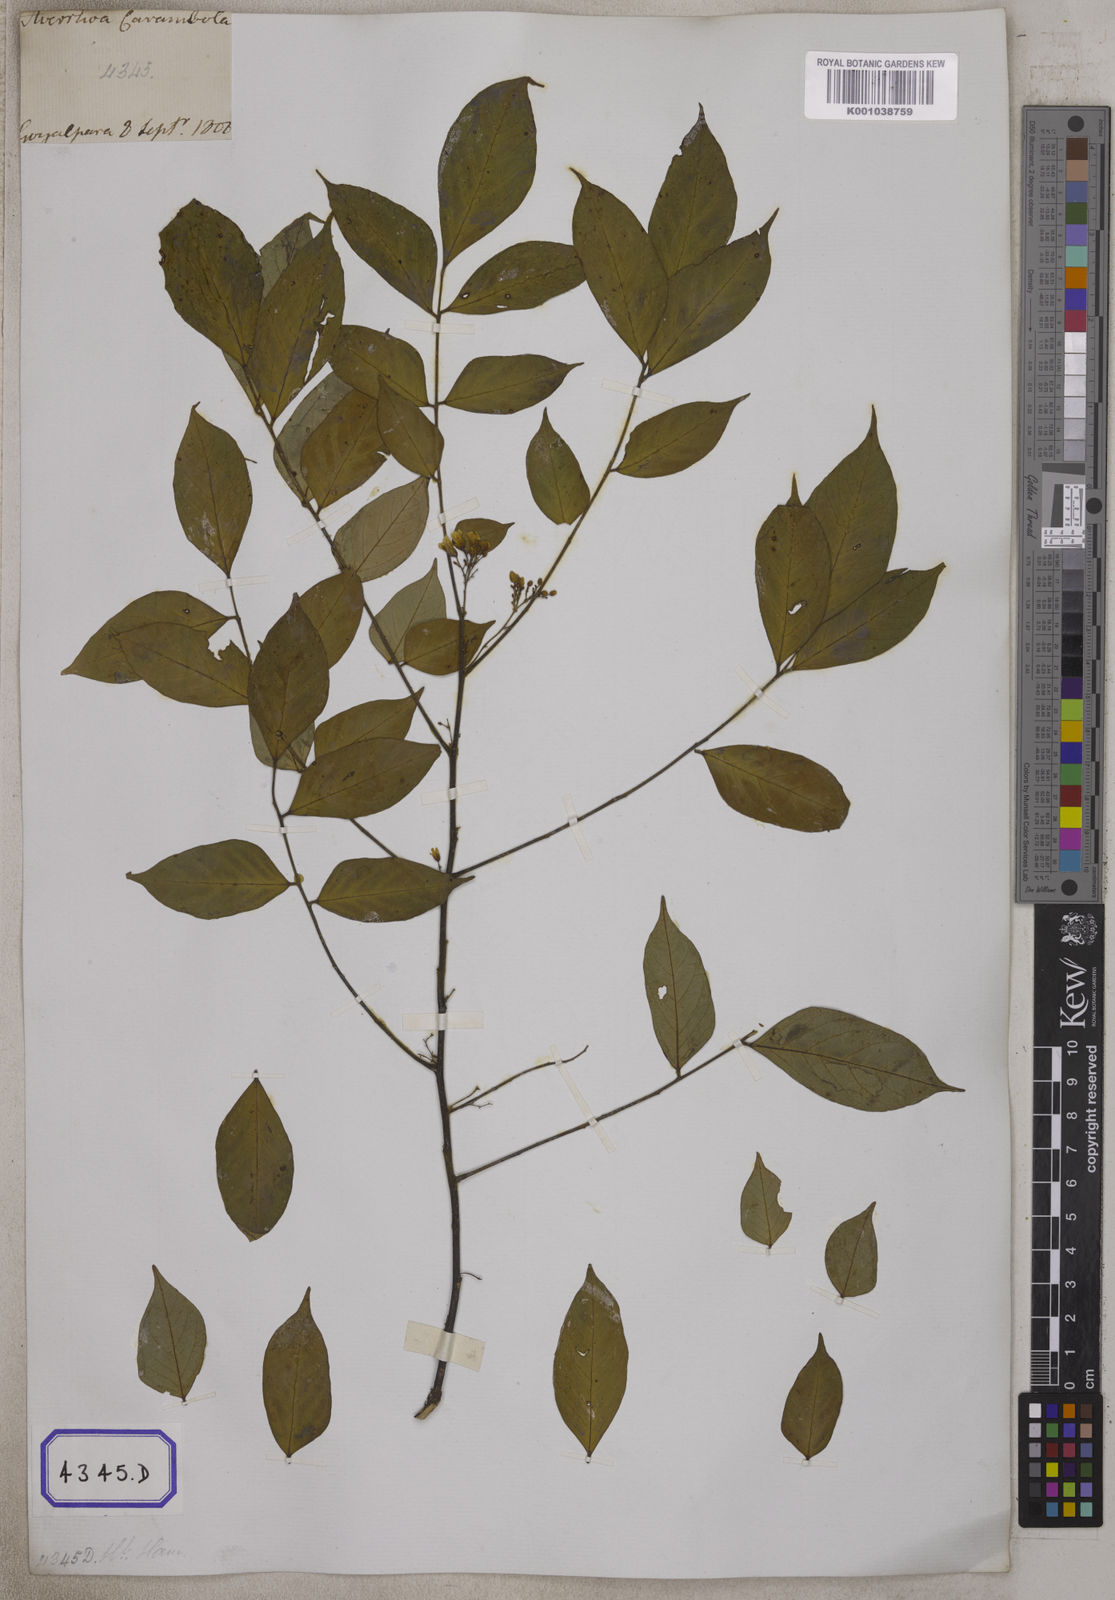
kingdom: Plantae
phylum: Tracheophyta
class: Magnoliopsida
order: Oxalidales
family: Oxalidaceae
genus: Averrhoa
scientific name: Averrhoa carambola
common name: Blimbing
